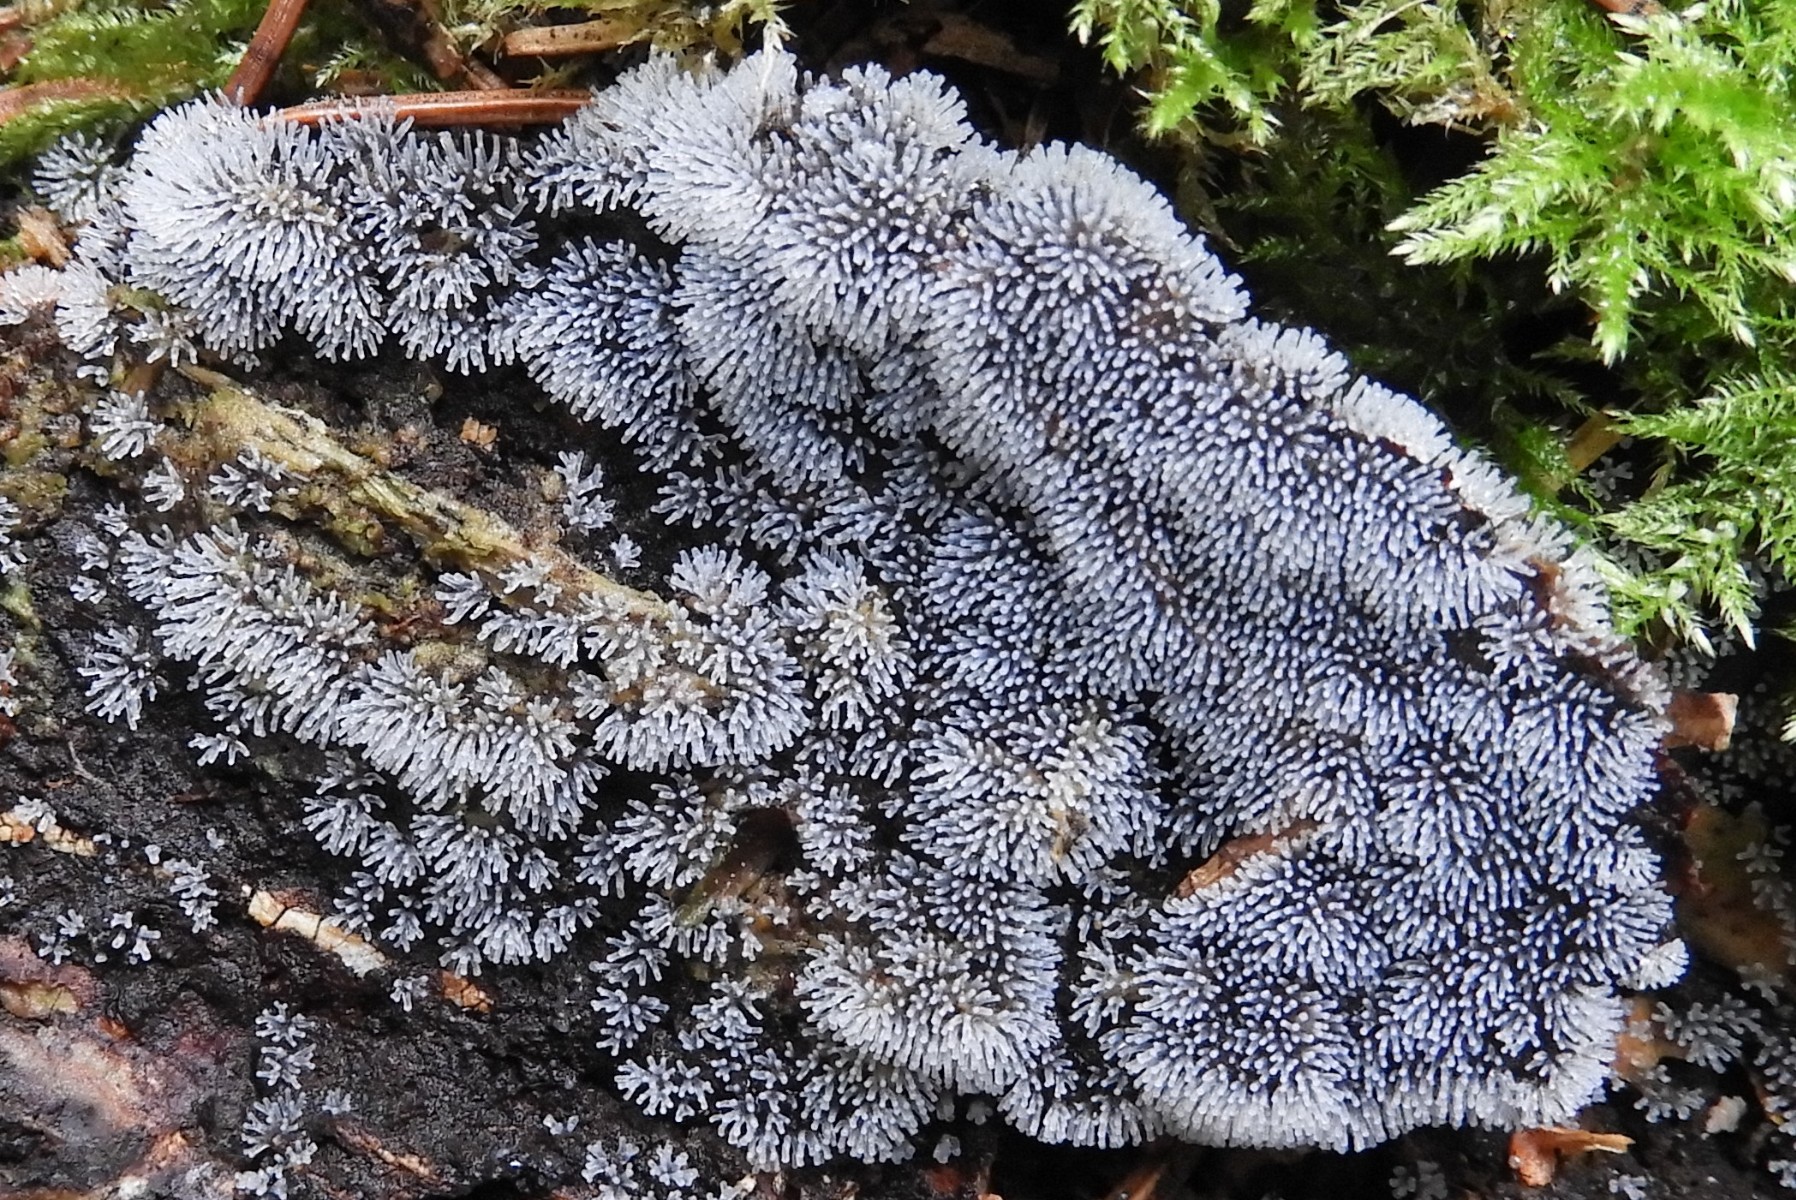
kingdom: Protozoa
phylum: Mycetozoa
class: Protosteliomycetes
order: Ceratiomyxales
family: Ceratiomyxaceae
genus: Ceratiomyxa
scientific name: Ceratiomyxa fruticulosa
